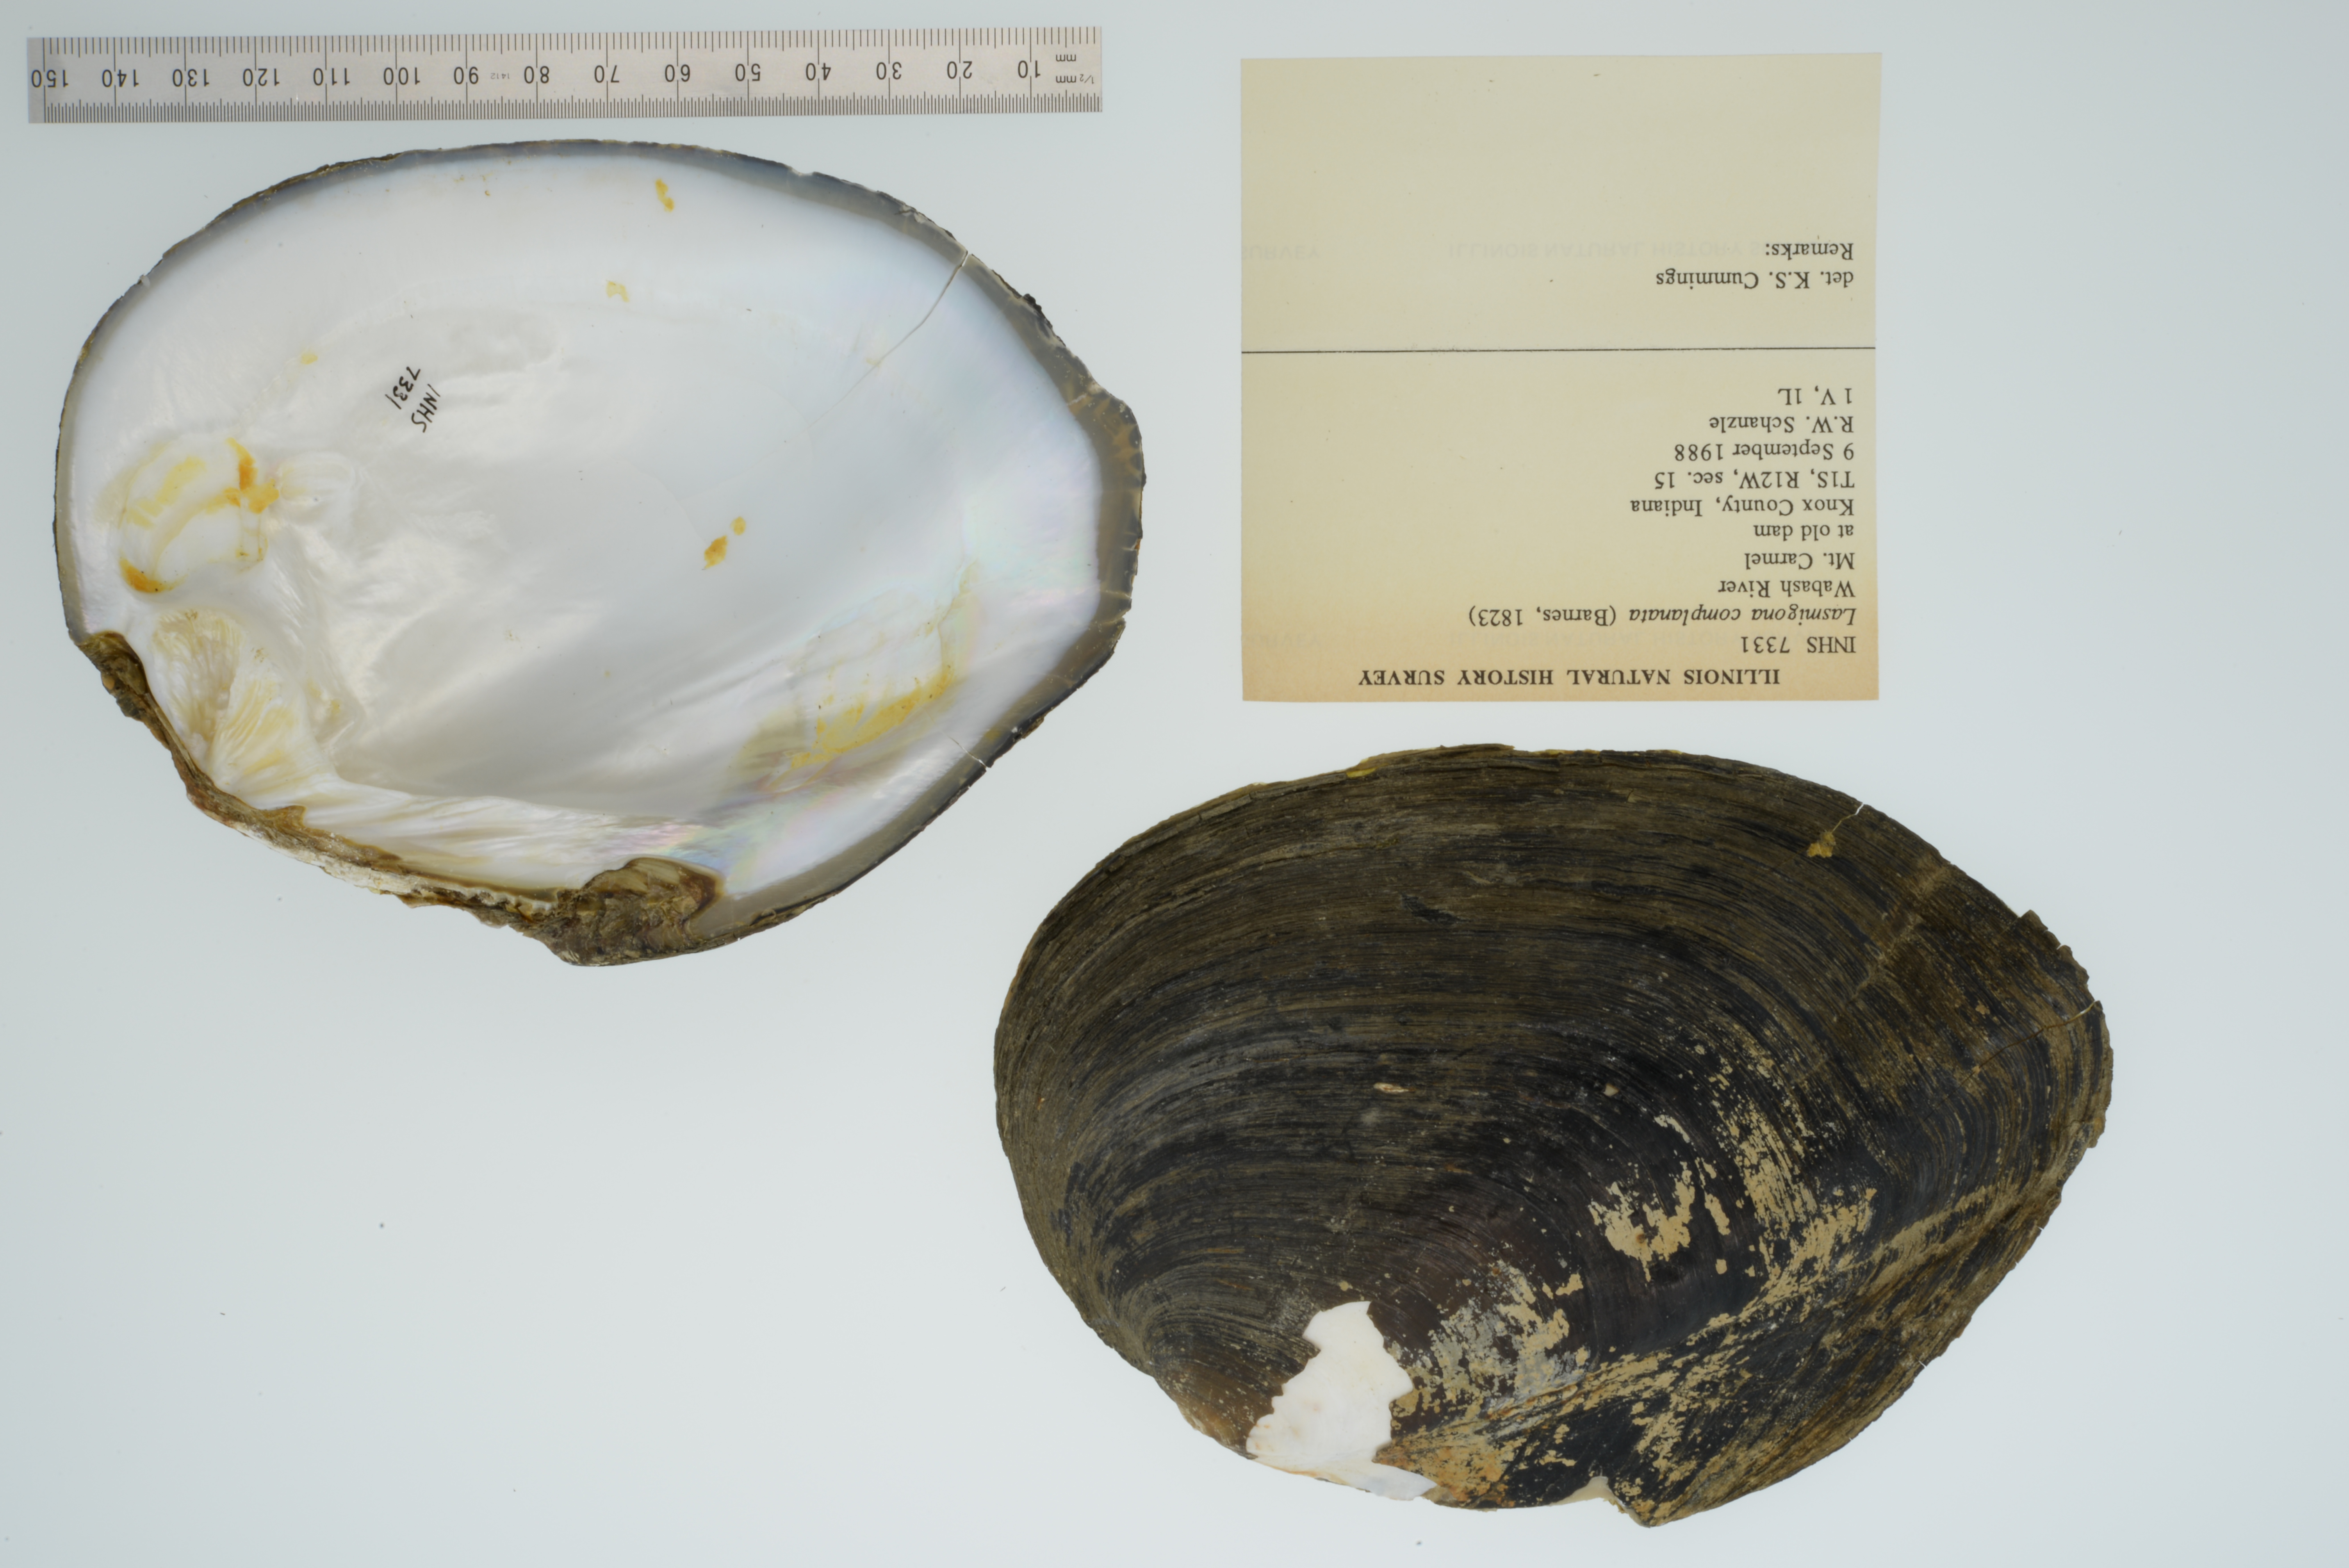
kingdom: Animalia
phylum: Mollusca
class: Bivalvia
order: Unionida
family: Unionidae
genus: Lasmigona
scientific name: Lasmigona complanata
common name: White heelsplitter
